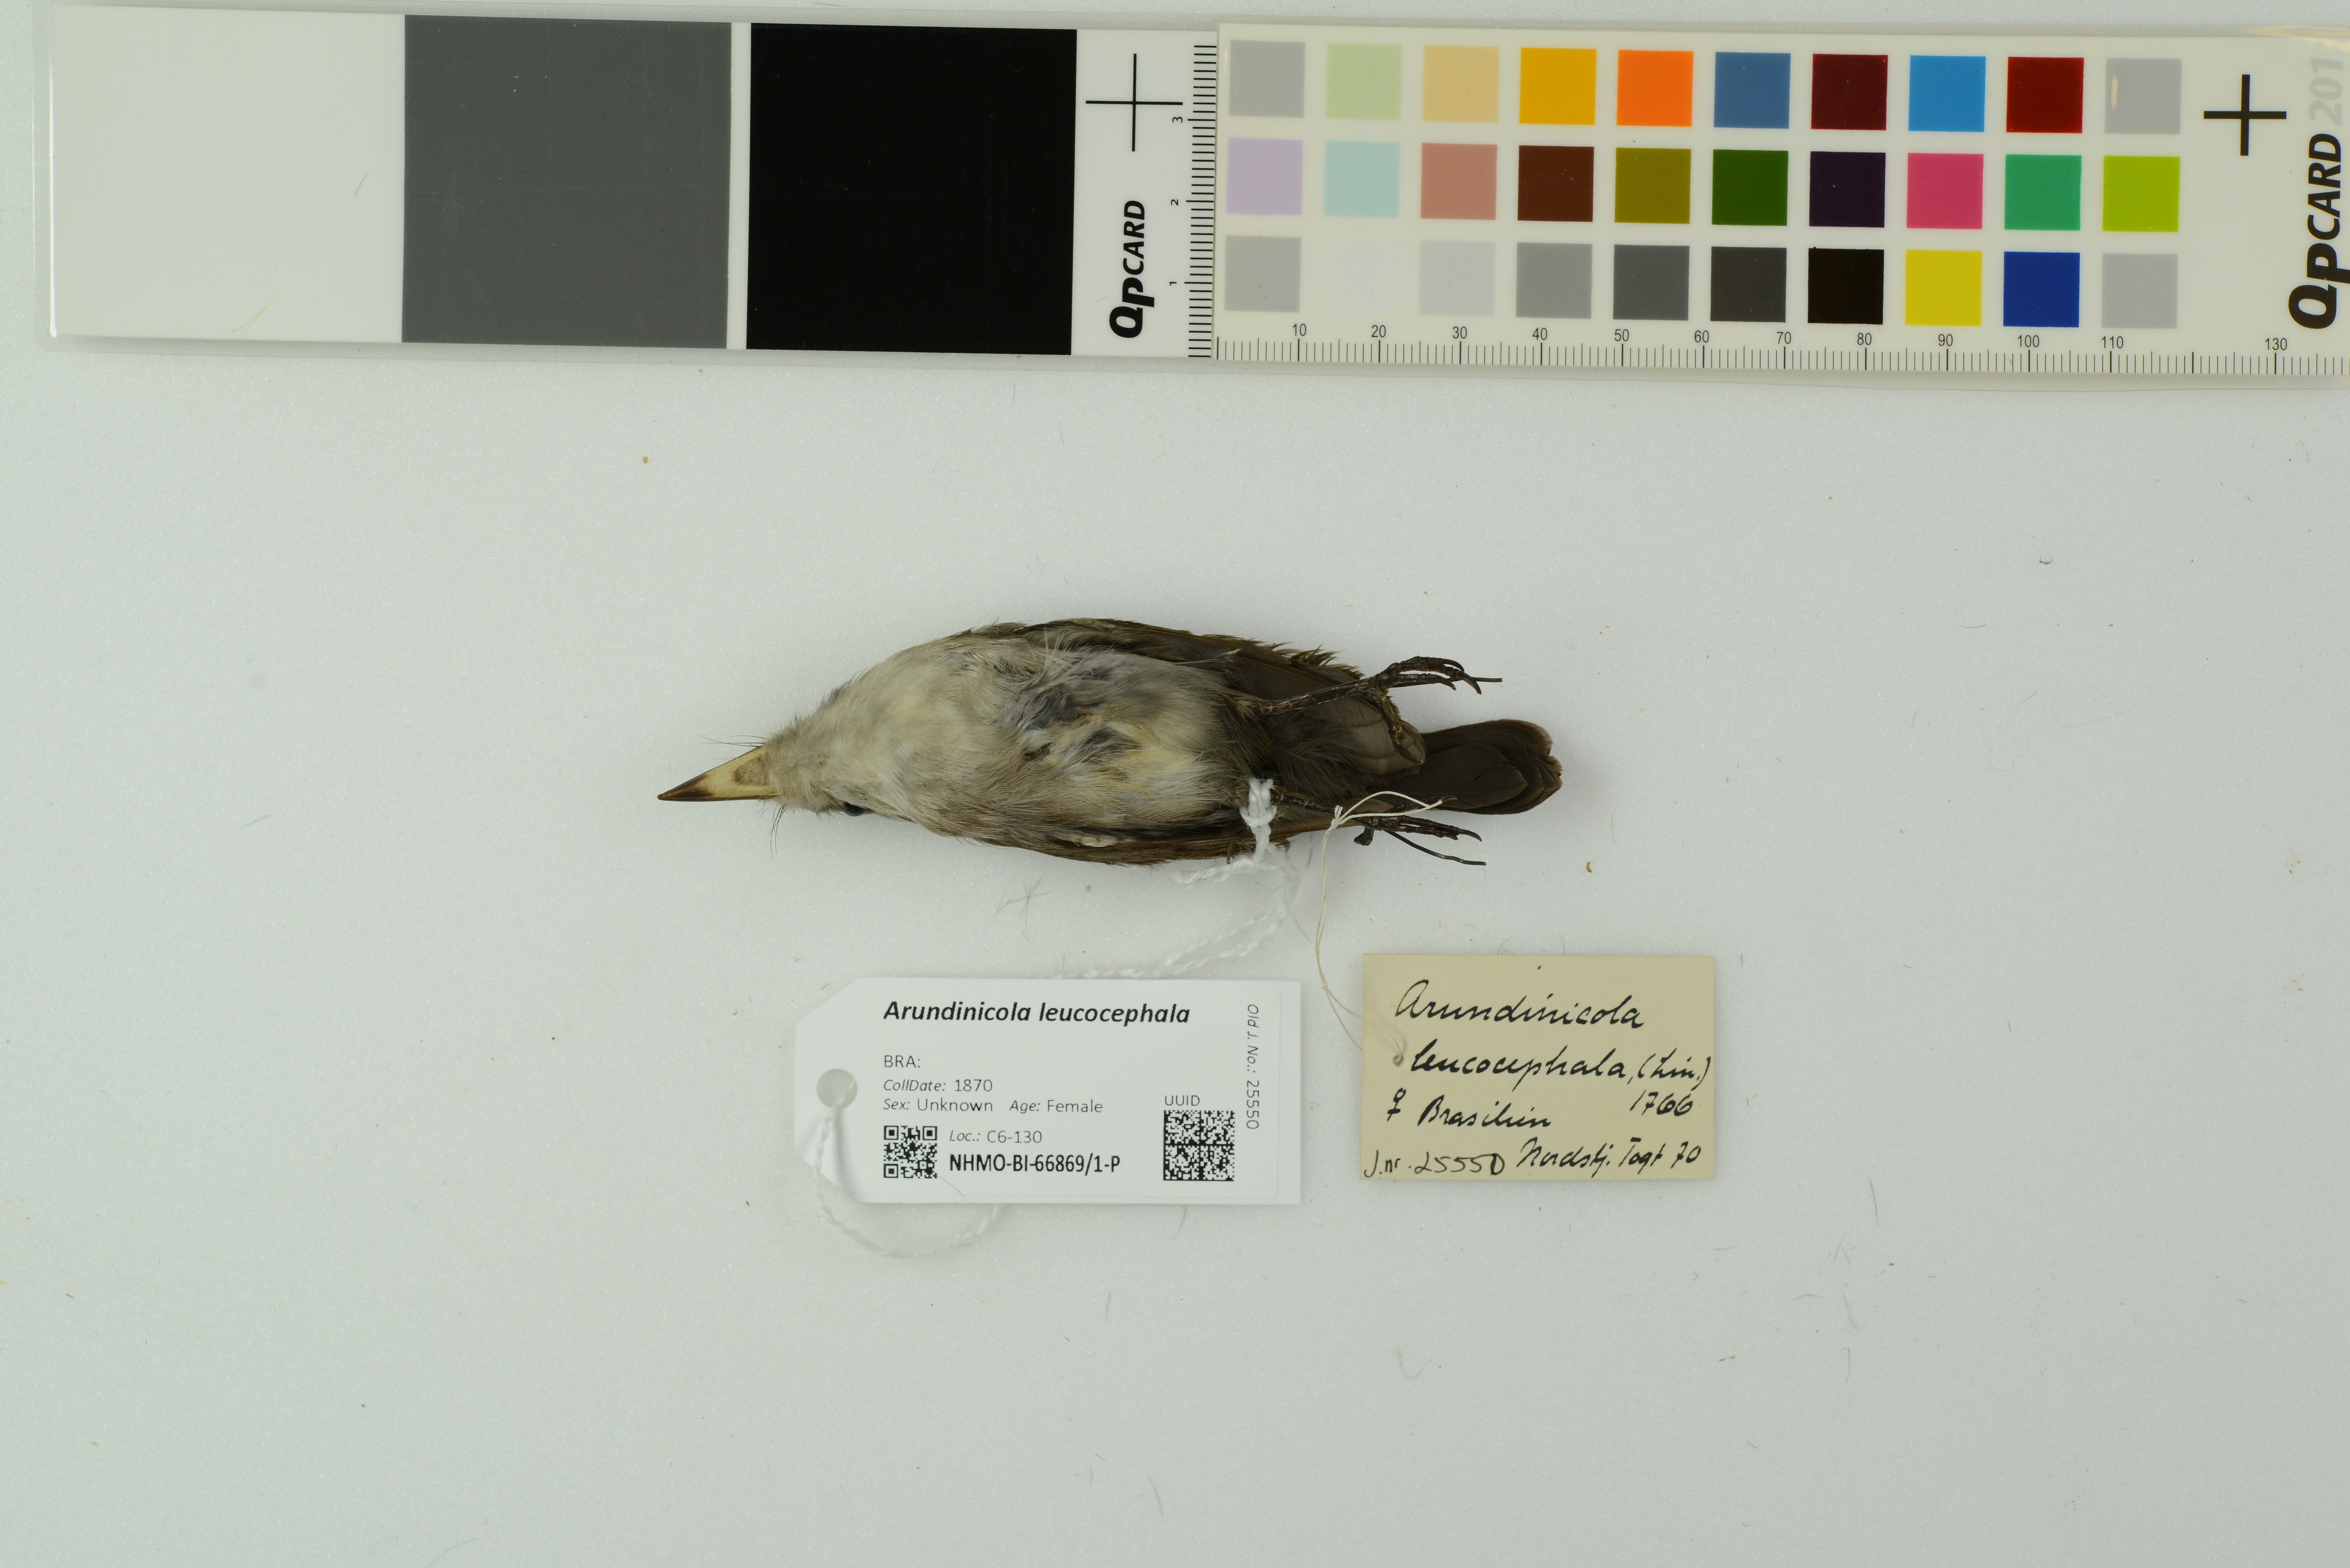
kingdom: Animalia
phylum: Chordata
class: Aves
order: Passeriformes
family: Tyrannidae
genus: Arundinicola
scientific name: Arundinicola leucocephala
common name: White-headed marsh tyrant
